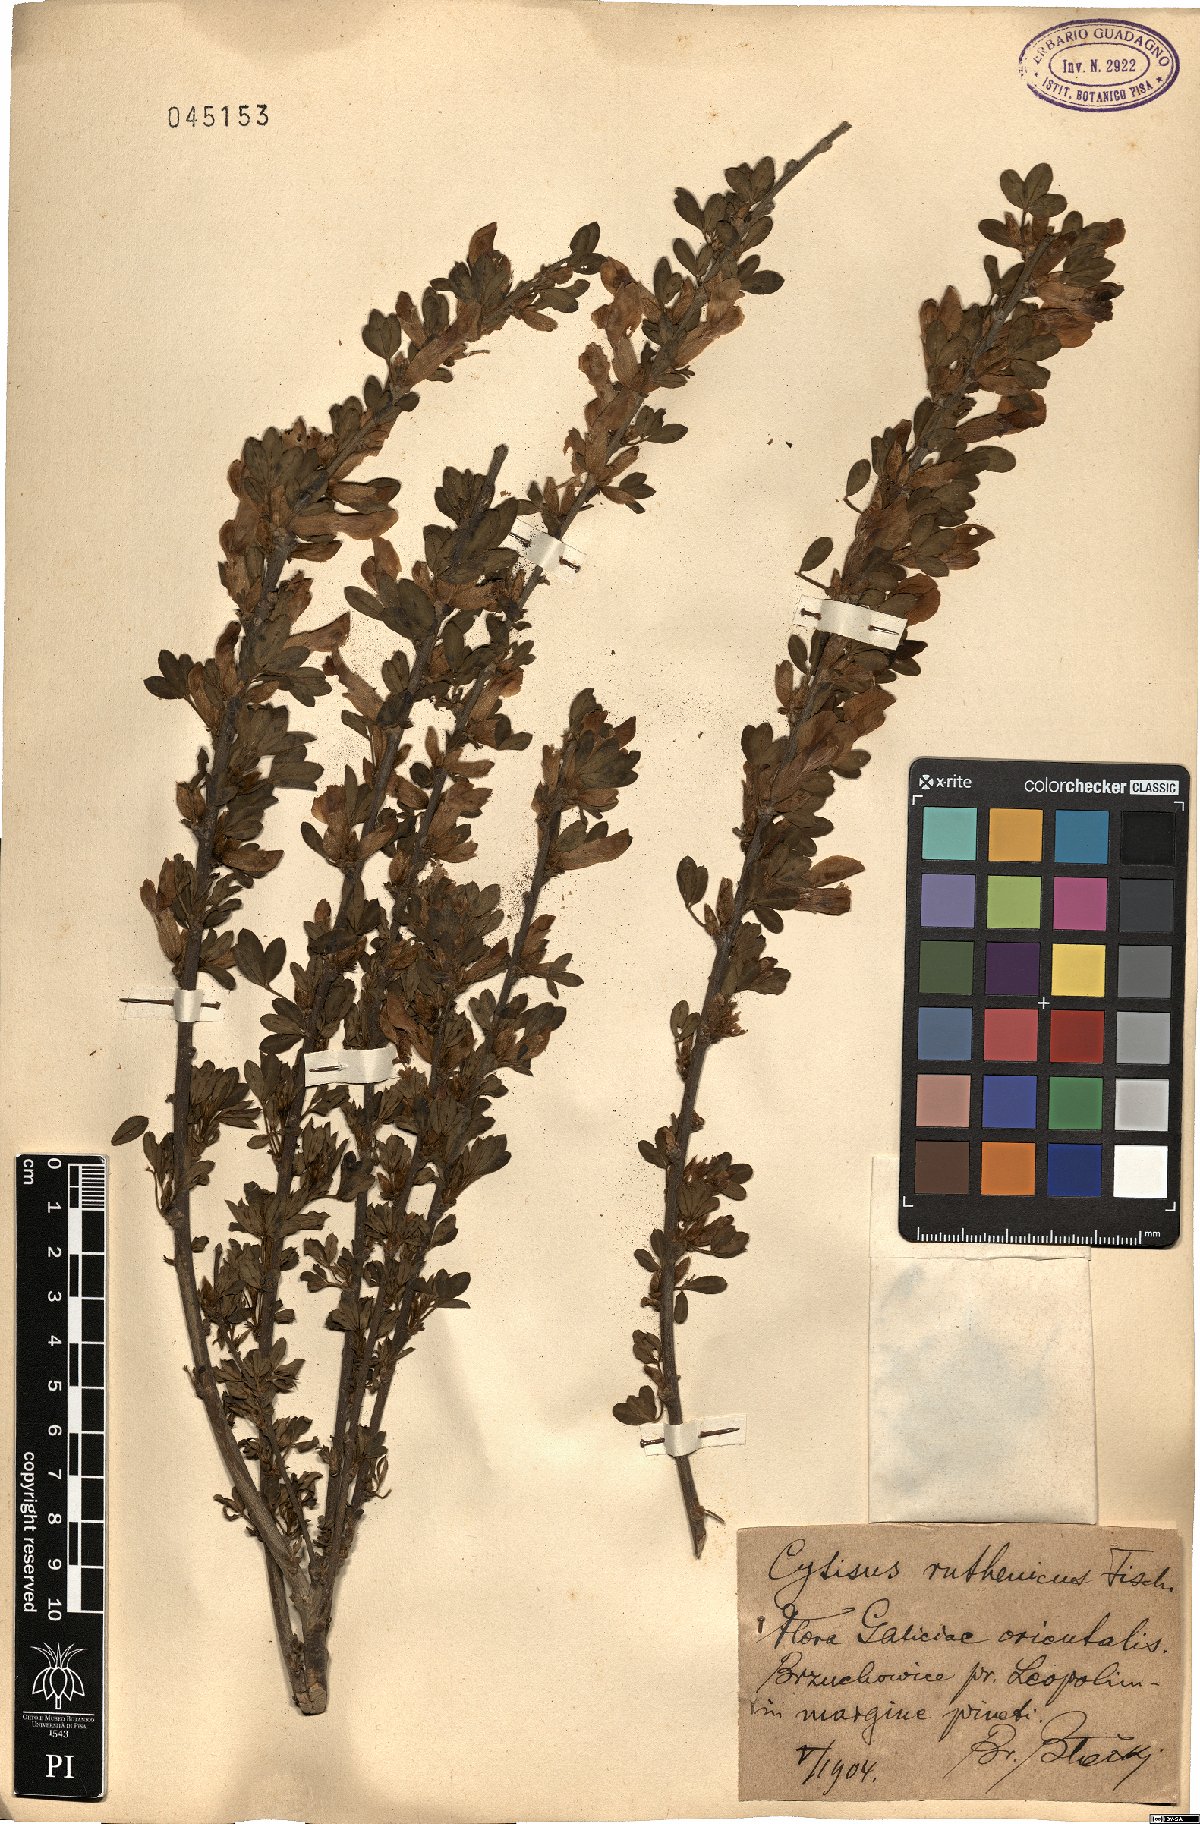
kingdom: Plantae
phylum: Tracheophyta
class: Magnoliopsida
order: Fabales
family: Fabaceae
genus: Chamaecytisus
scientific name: Chamaecytisus ruthenicus
